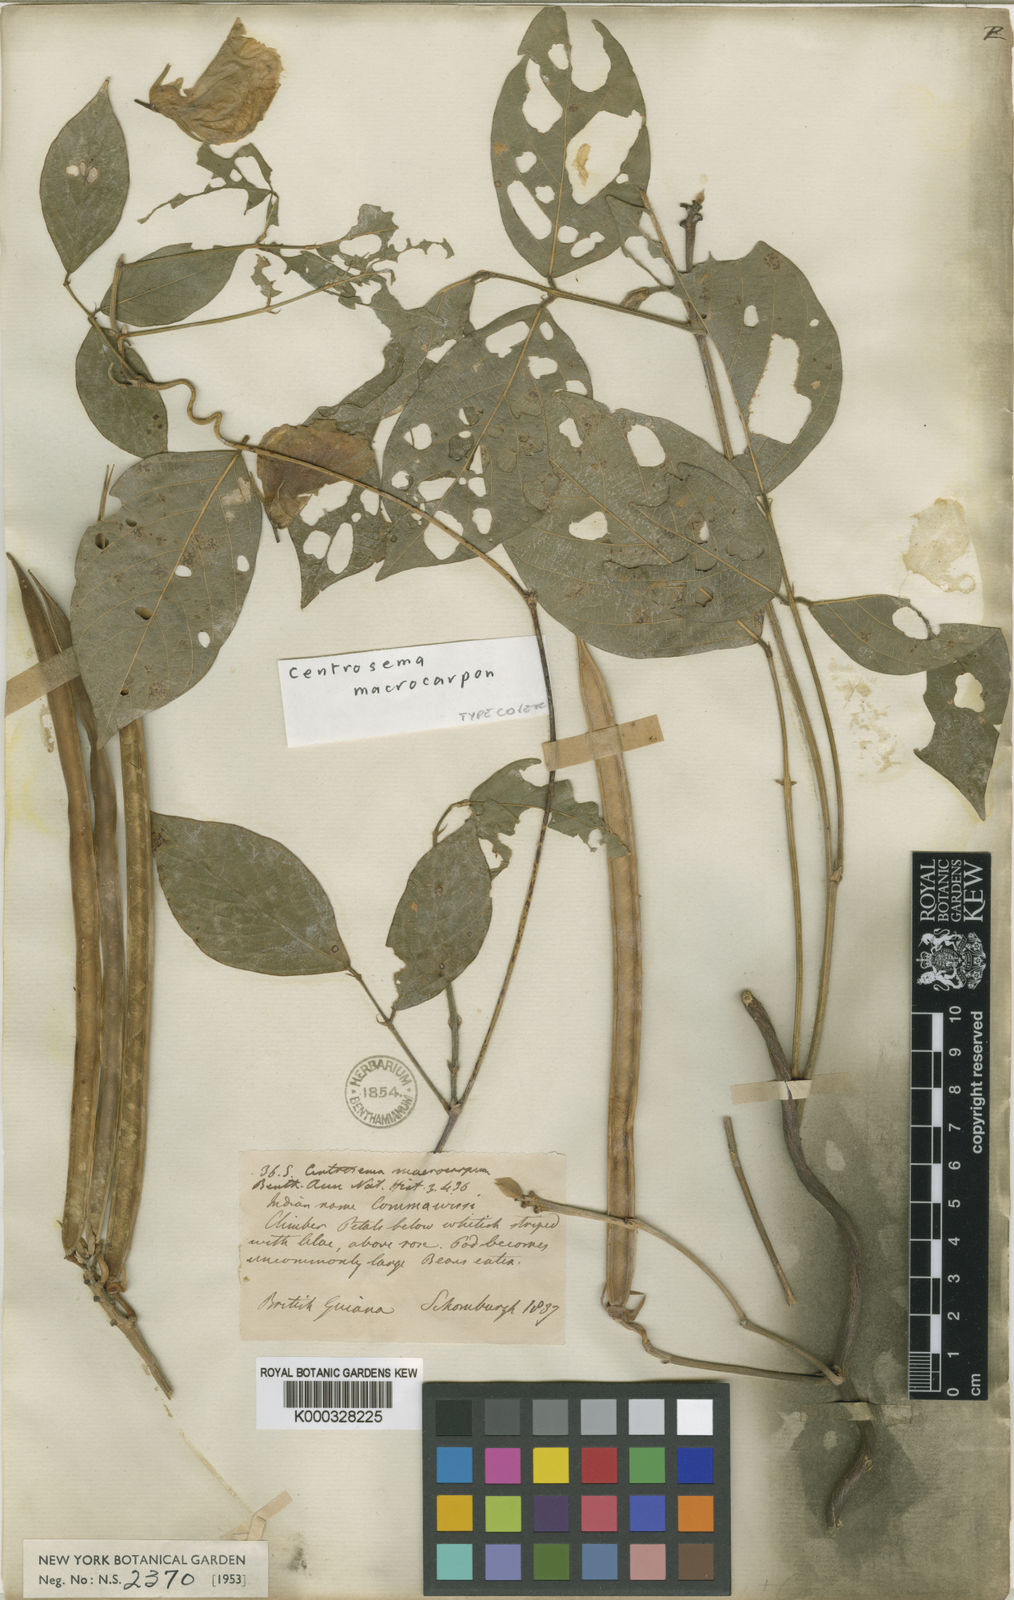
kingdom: Plantae
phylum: Tracheophyta
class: Magnoliopsida
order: Fabales
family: Fabaceae
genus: Centrosema
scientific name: Centrosema macrocarpum
